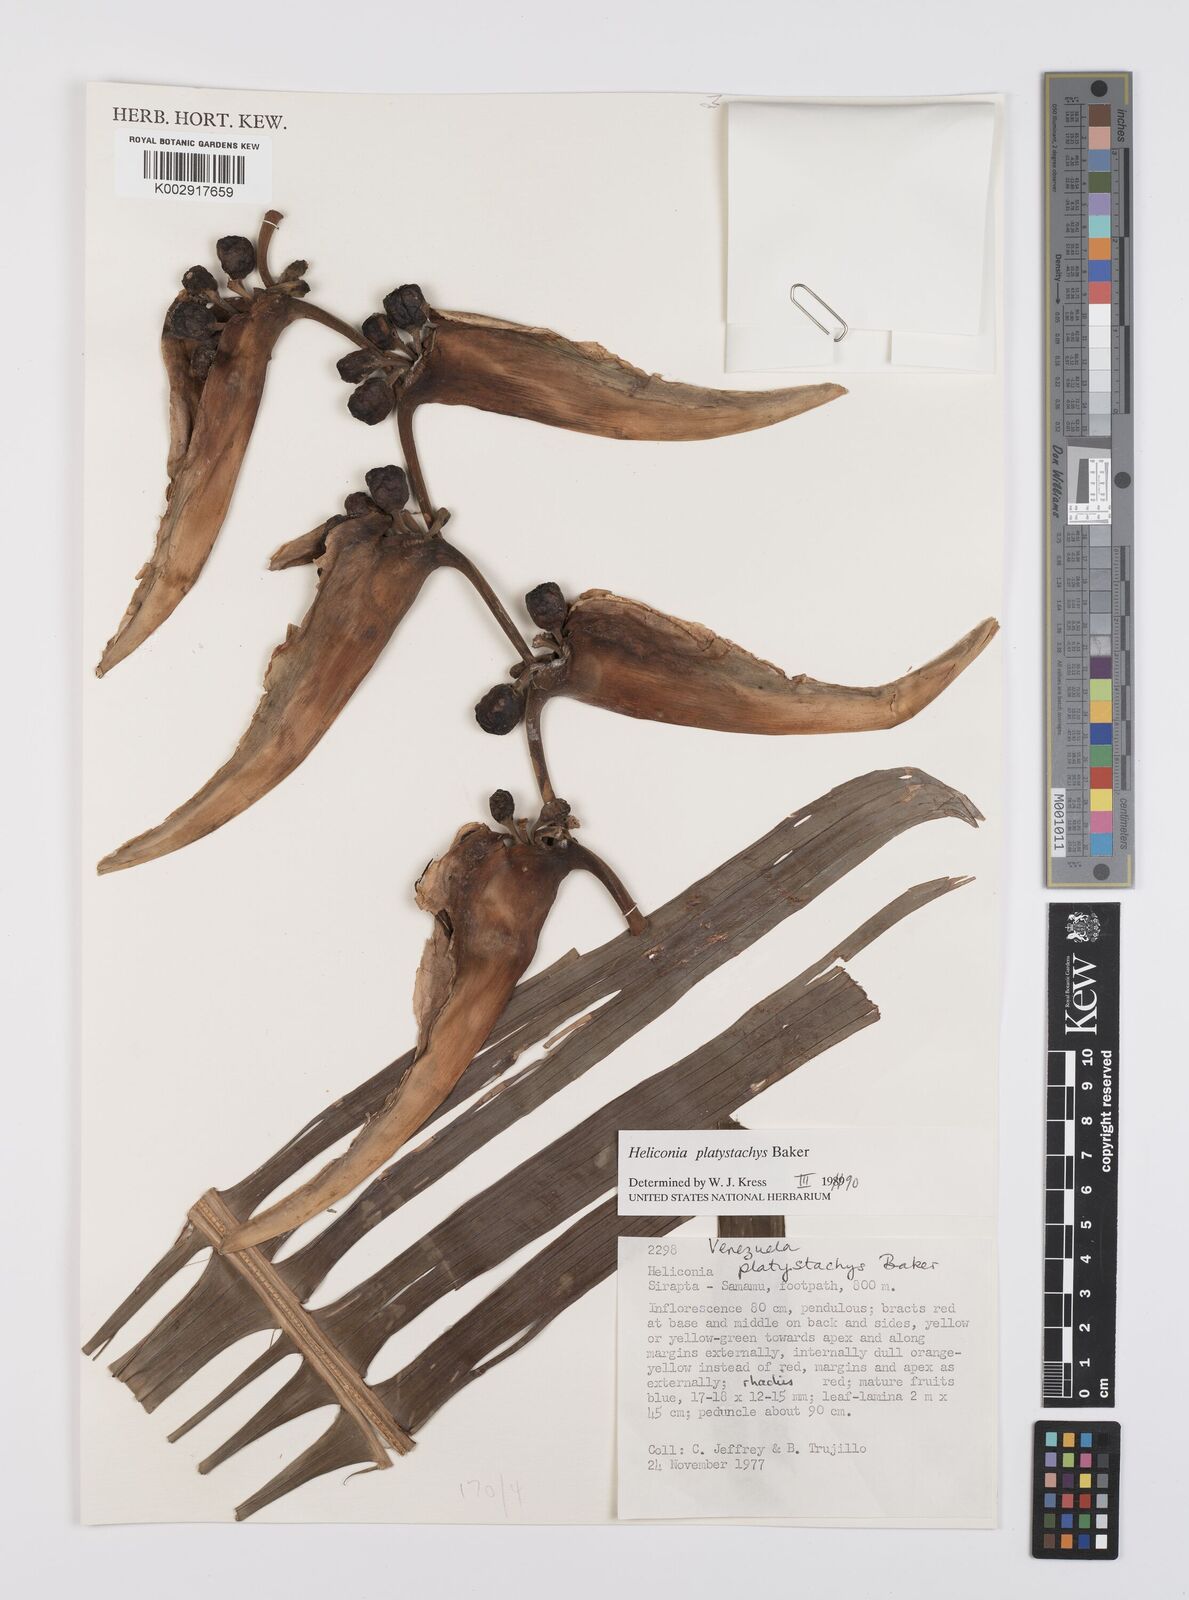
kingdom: Plantae
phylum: Tracheophyta
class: Liliopsida
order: Zingiberales
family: Heliconiaceae
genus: Heliconia
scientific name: Heliconia platystachys
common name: False bird of paradise
